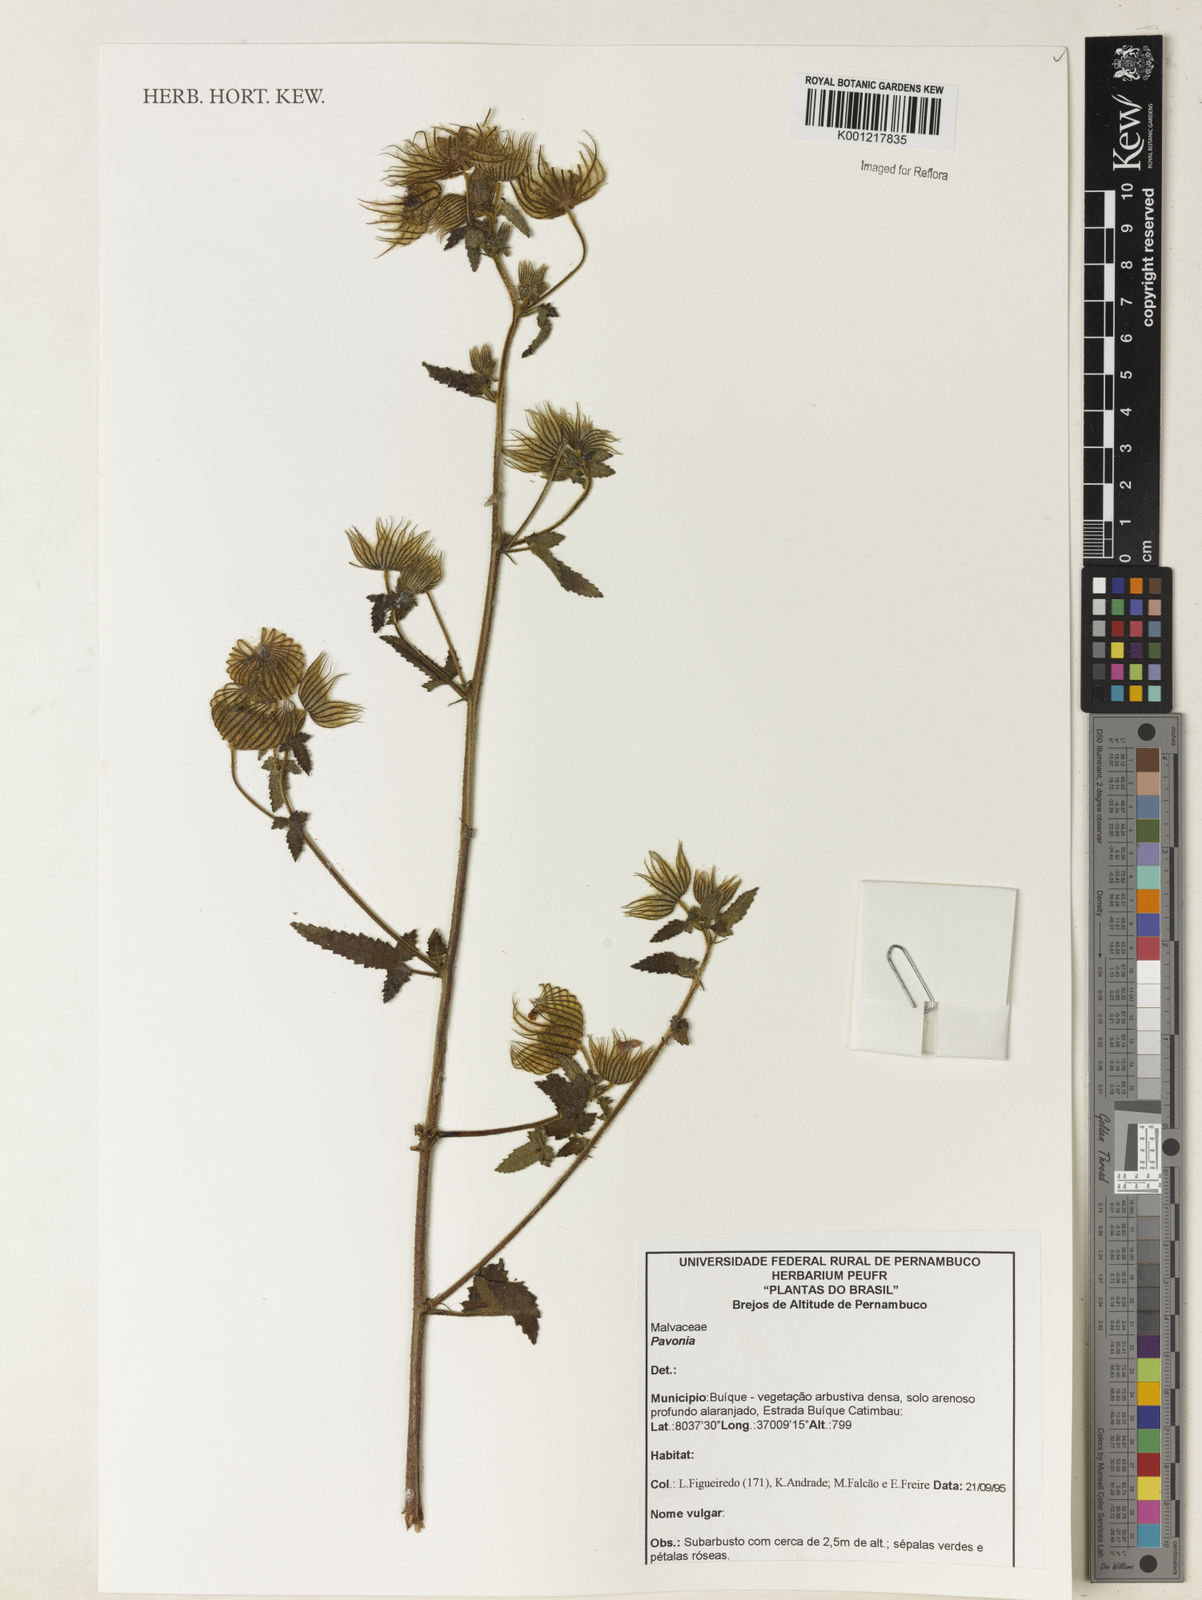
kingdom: Plantae
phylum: Tracheophyta
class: Magnoliopsida
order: Malvales
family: Malvaceae
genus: Pavonia
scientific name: Pavonia
